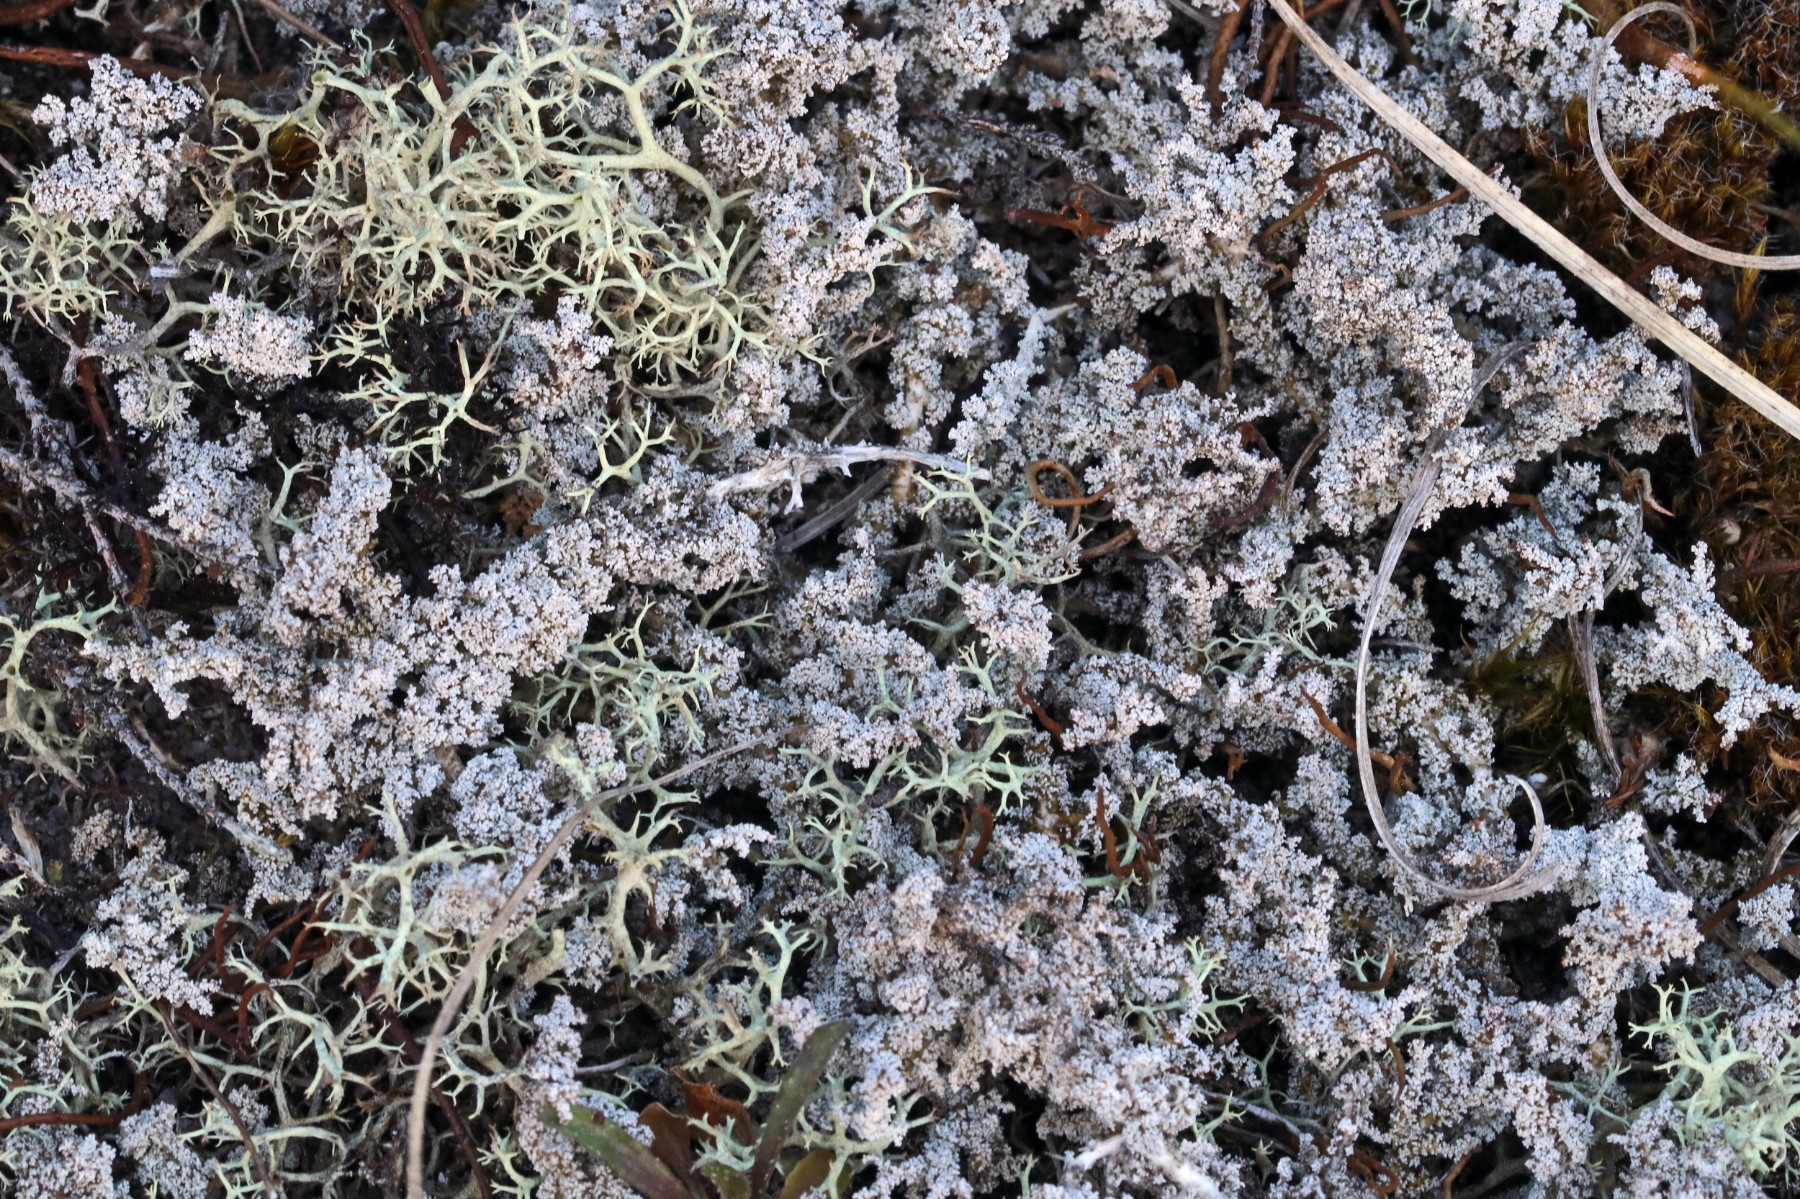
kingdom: Fungi
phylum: Ascomycota
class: Lecanoromycetes
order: Lecanorales
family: Stereocaulaceae
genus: Stereocaulon
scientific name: Stereocaulon saxatile
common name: klit-korallav
